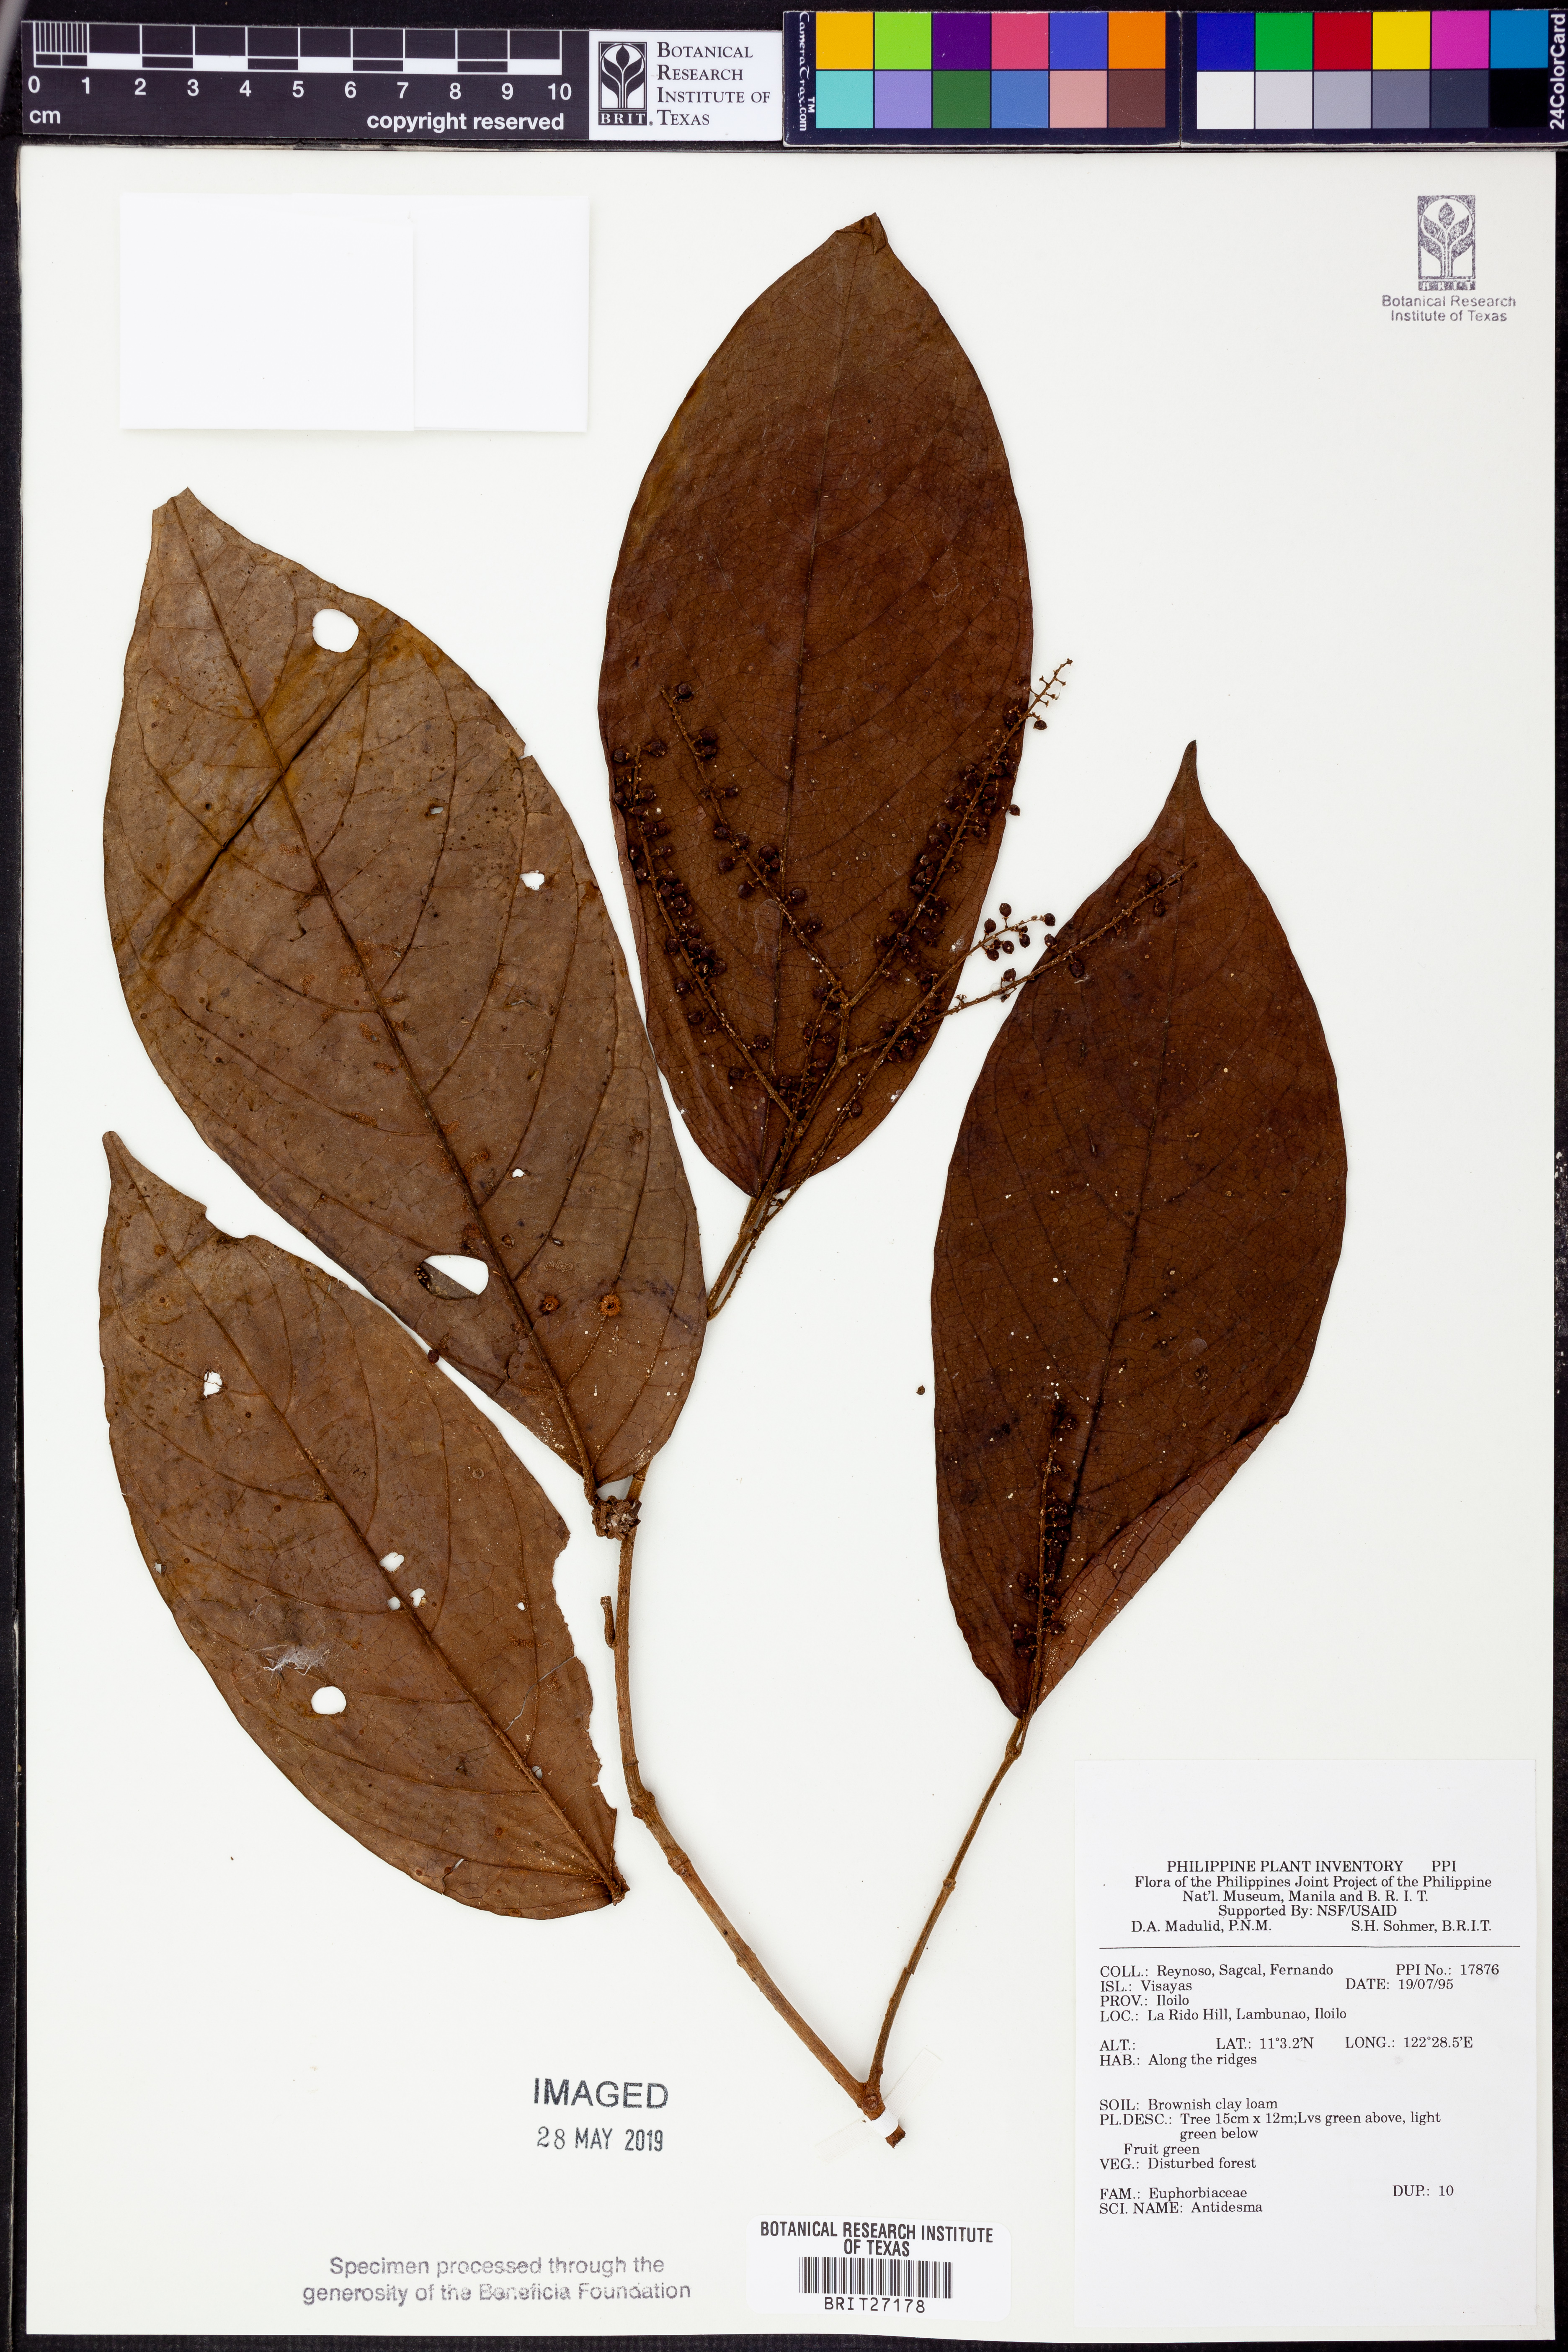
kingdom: Plantae
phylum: Tracheophyta
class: Magnoliopsida
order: Malpighiales
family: Phyllanthaceae
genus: Antidesma
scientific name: Antidesma
